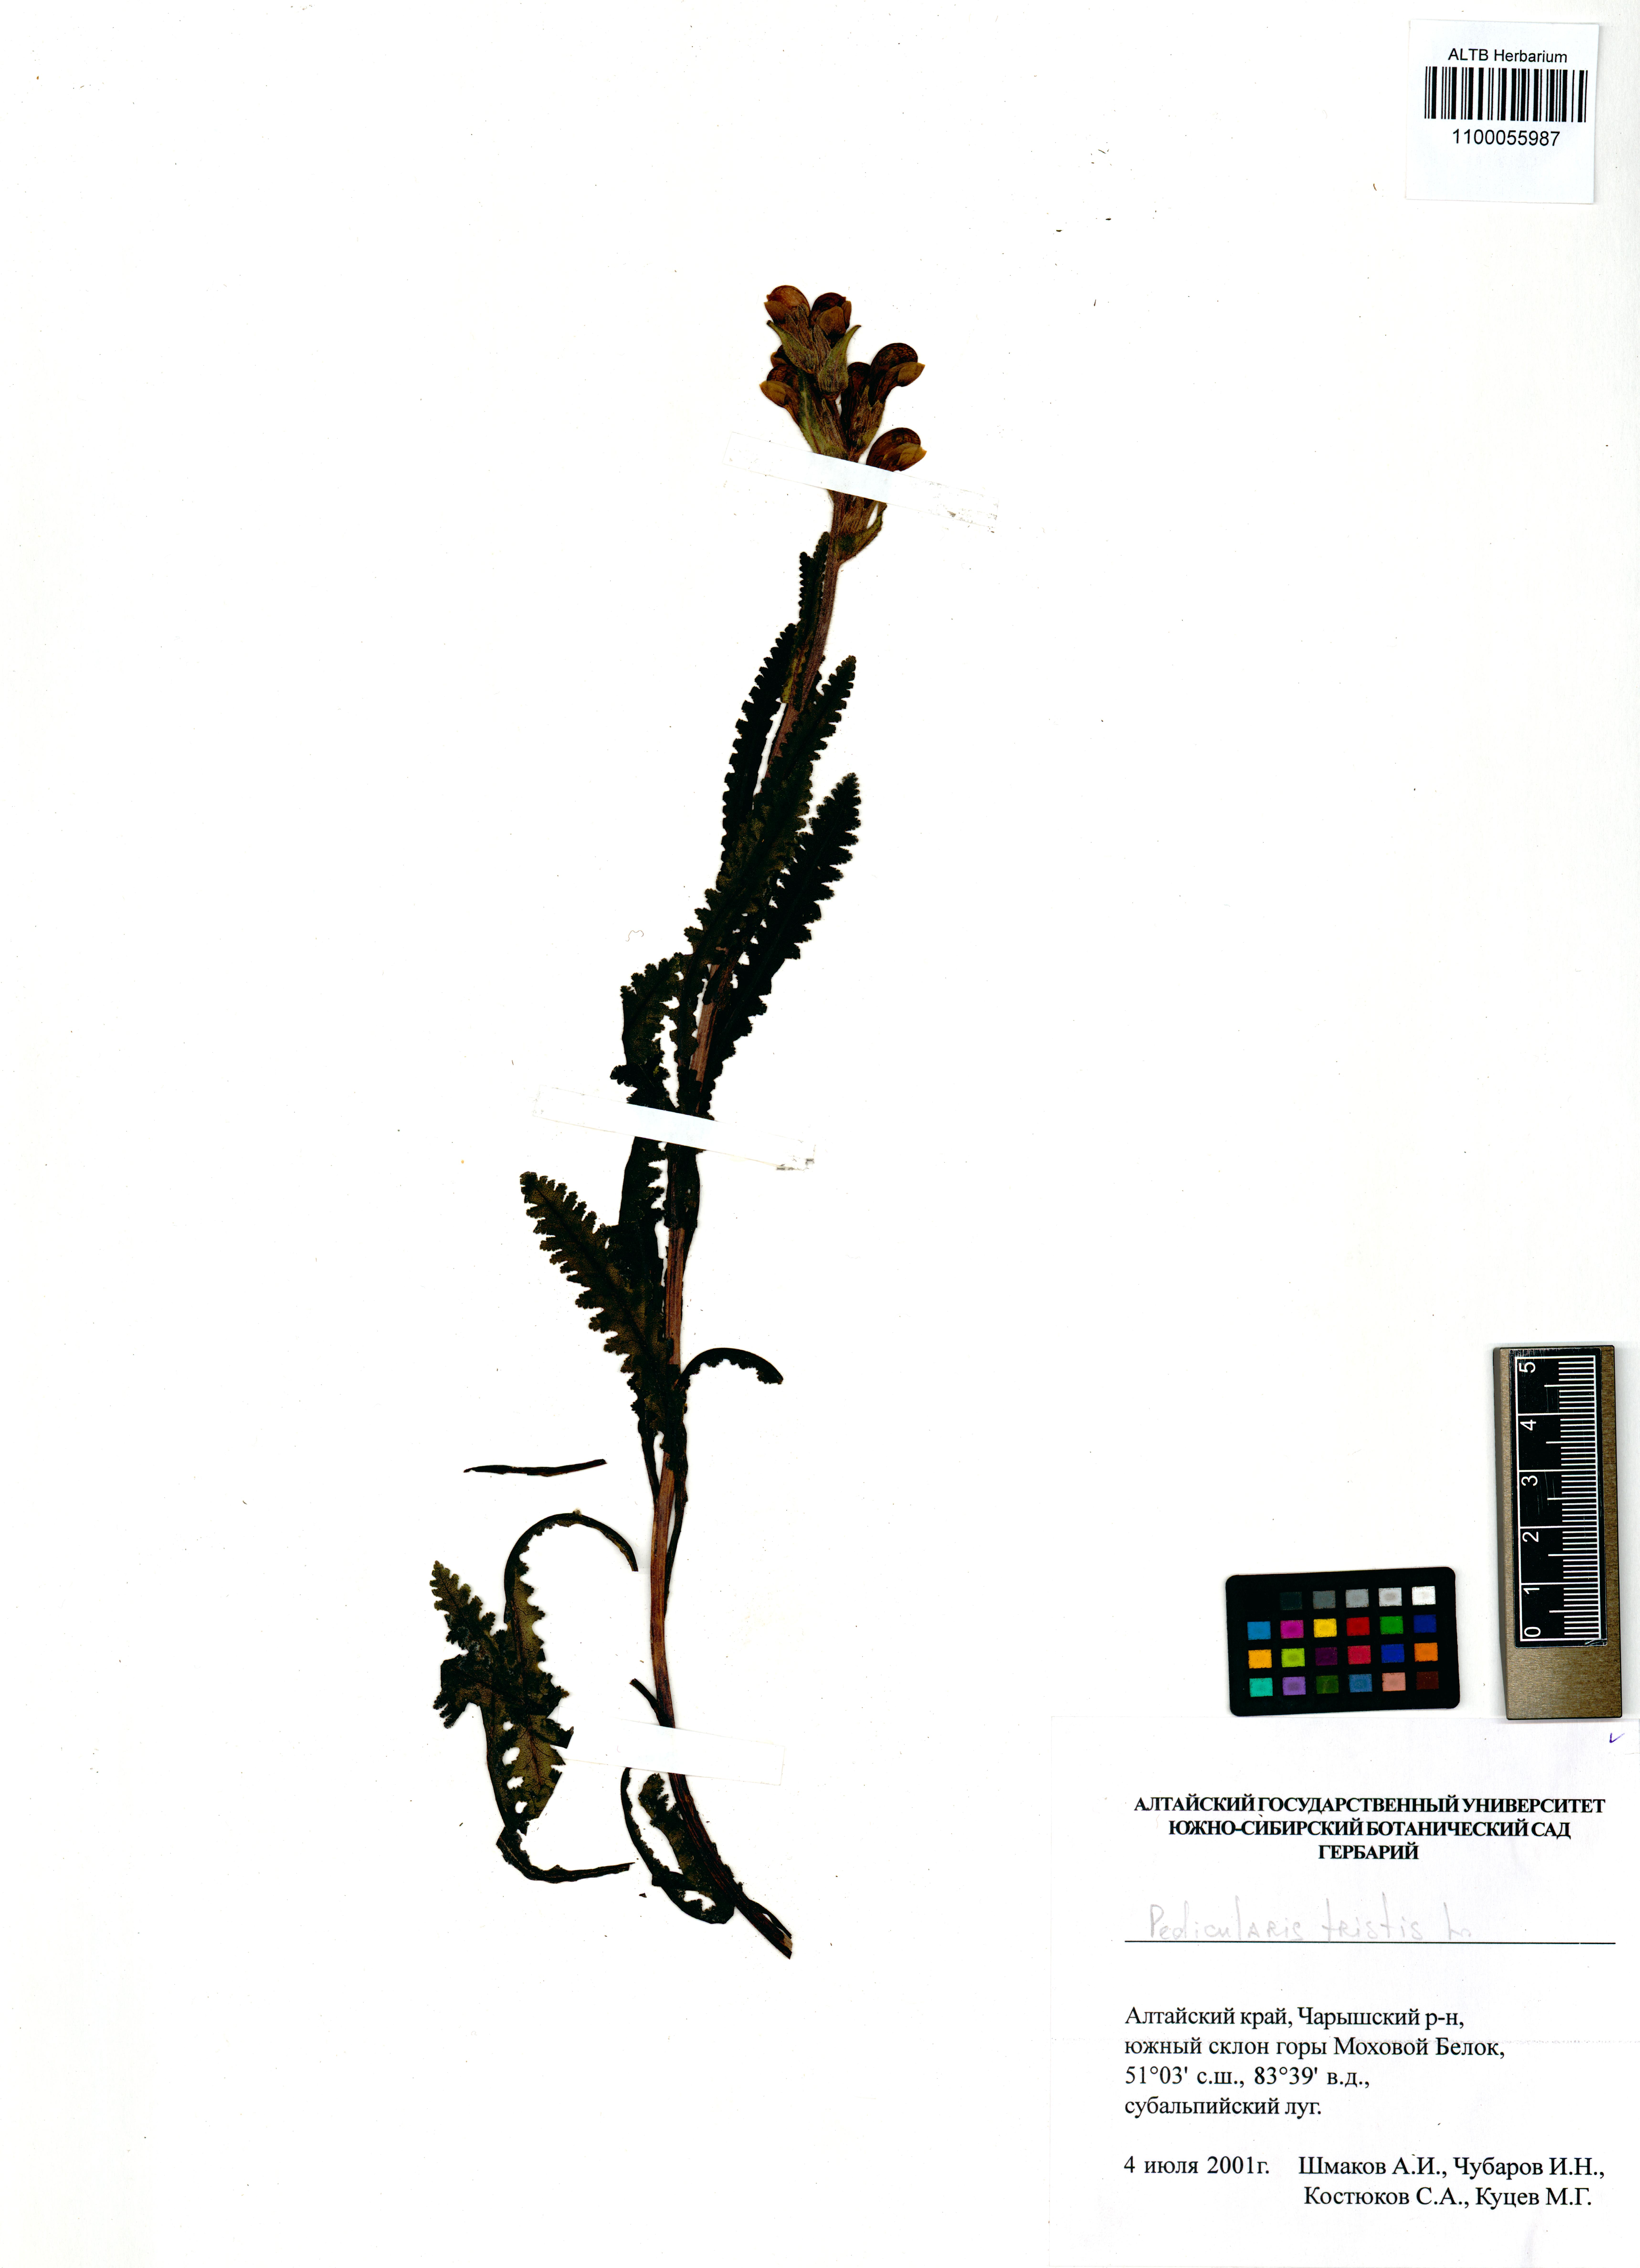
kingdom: Plantae
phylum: Tracheophyta
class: Magnoliopsida
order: Lamiales
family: Orobanchaceae
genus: Pedicularis
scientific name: Pedicularis tristis
